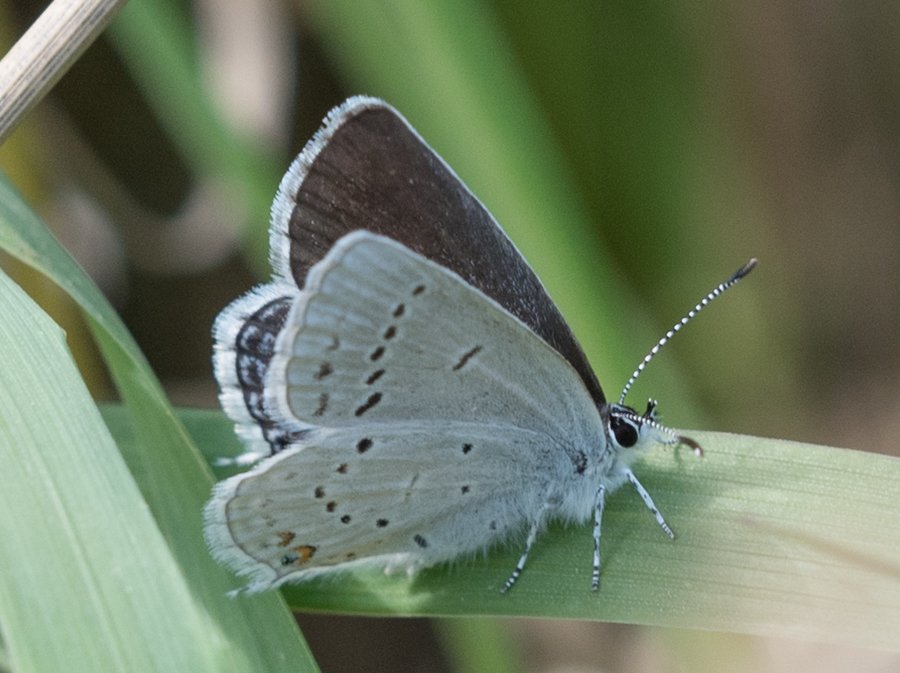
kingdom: Animalia
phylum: Arthropoda
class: Insecta
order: Lepidoptera
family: Lycaenidae
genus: Elkalyce
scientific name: Elkalyce amyntula
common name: Western Tailed-Blue
